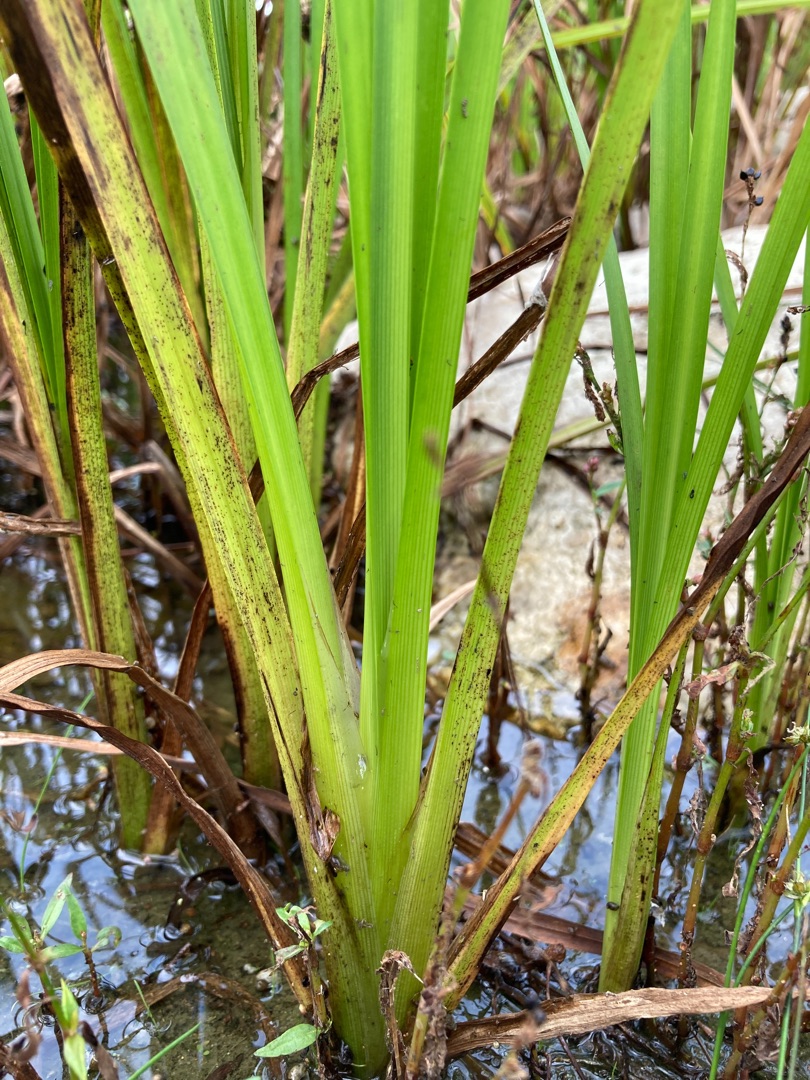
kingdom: Plantae
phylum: Tracheophyta
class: Liliopsida
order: Poales
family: Typhaceae
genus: Sparganium
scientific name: Sparganium erectum
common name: Grenet pindsvineknop
